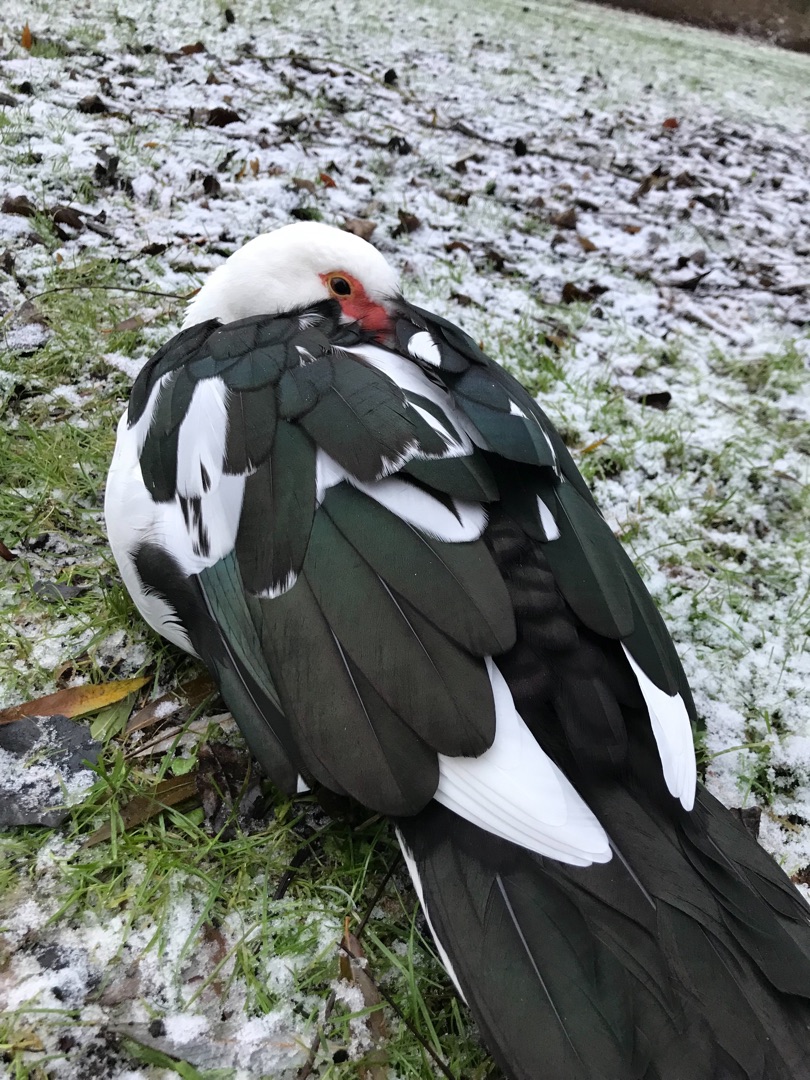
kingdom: Animalia
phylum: Chordata
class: Aves
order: Anseriformes
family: Anatidae
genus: Cairina
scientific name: Cairina moschata
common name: Moskusand
